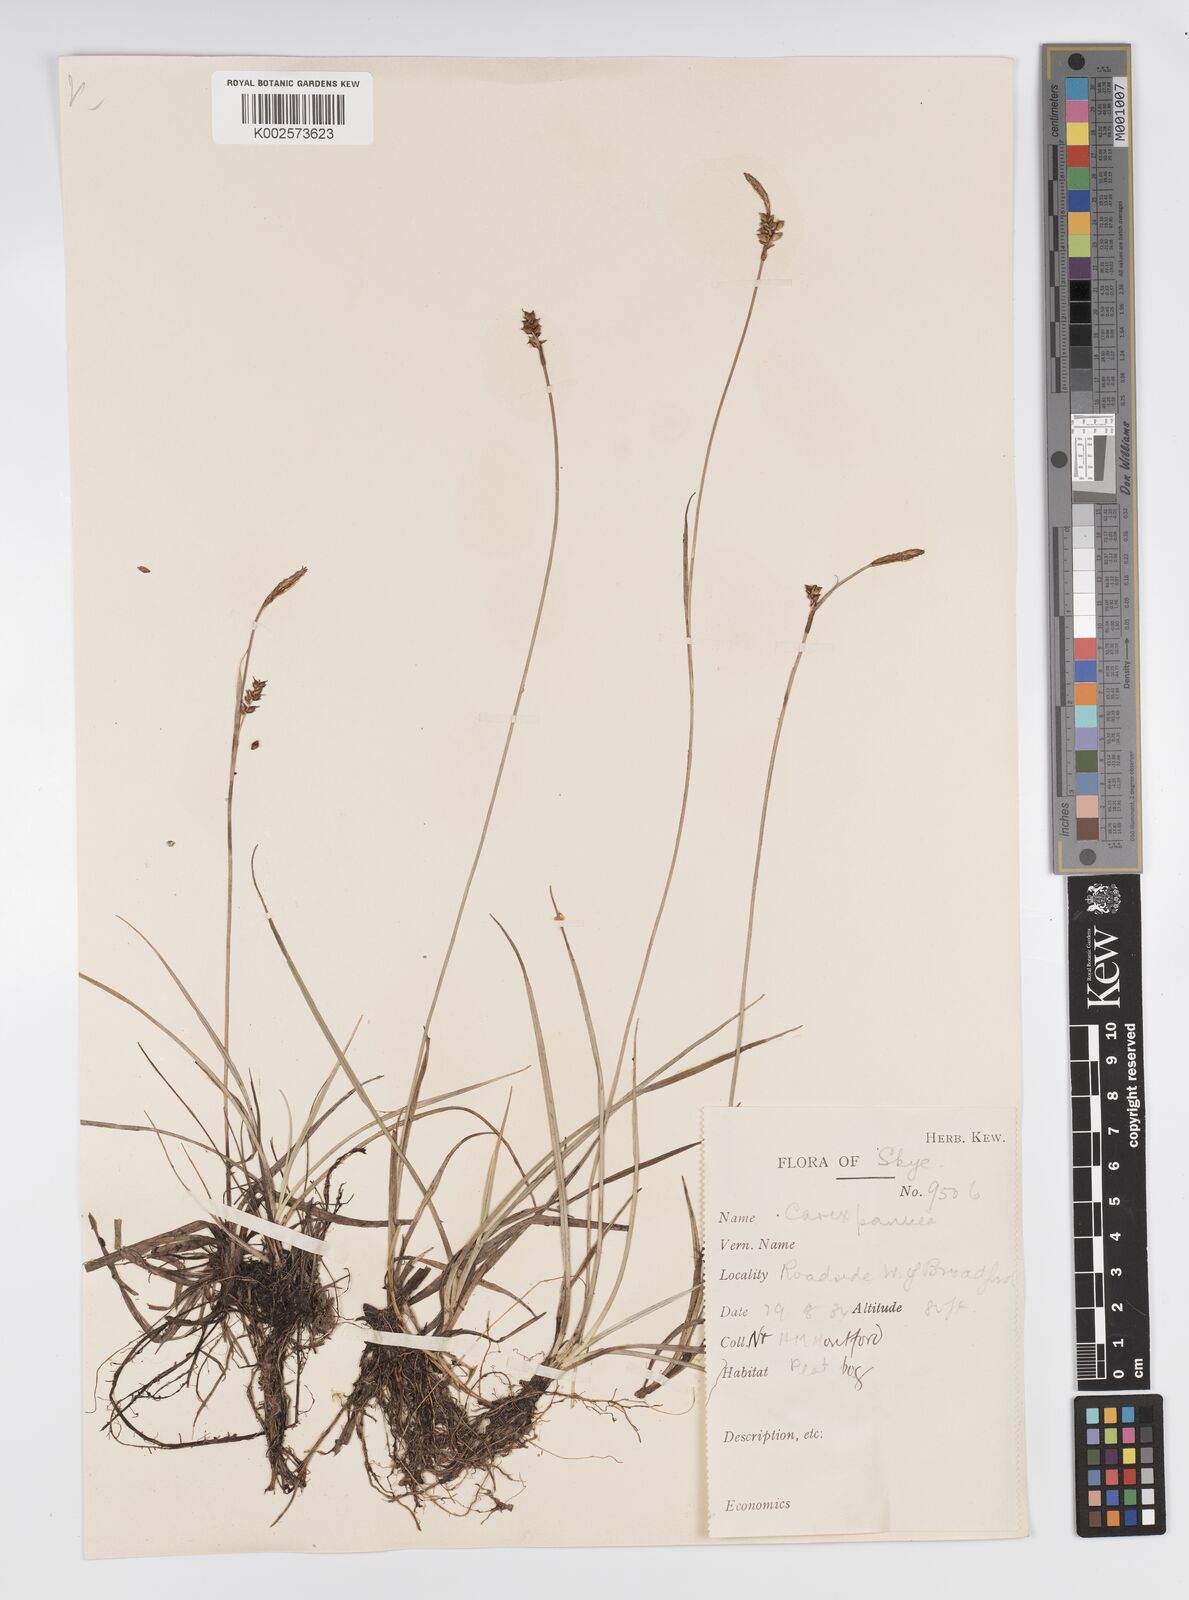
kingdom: Plantae
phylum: Tracheophyta
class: Liliopsida
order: Poales
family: Cyperaceae
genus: Carex
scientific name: Carex panicea
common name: Carnation sedge
